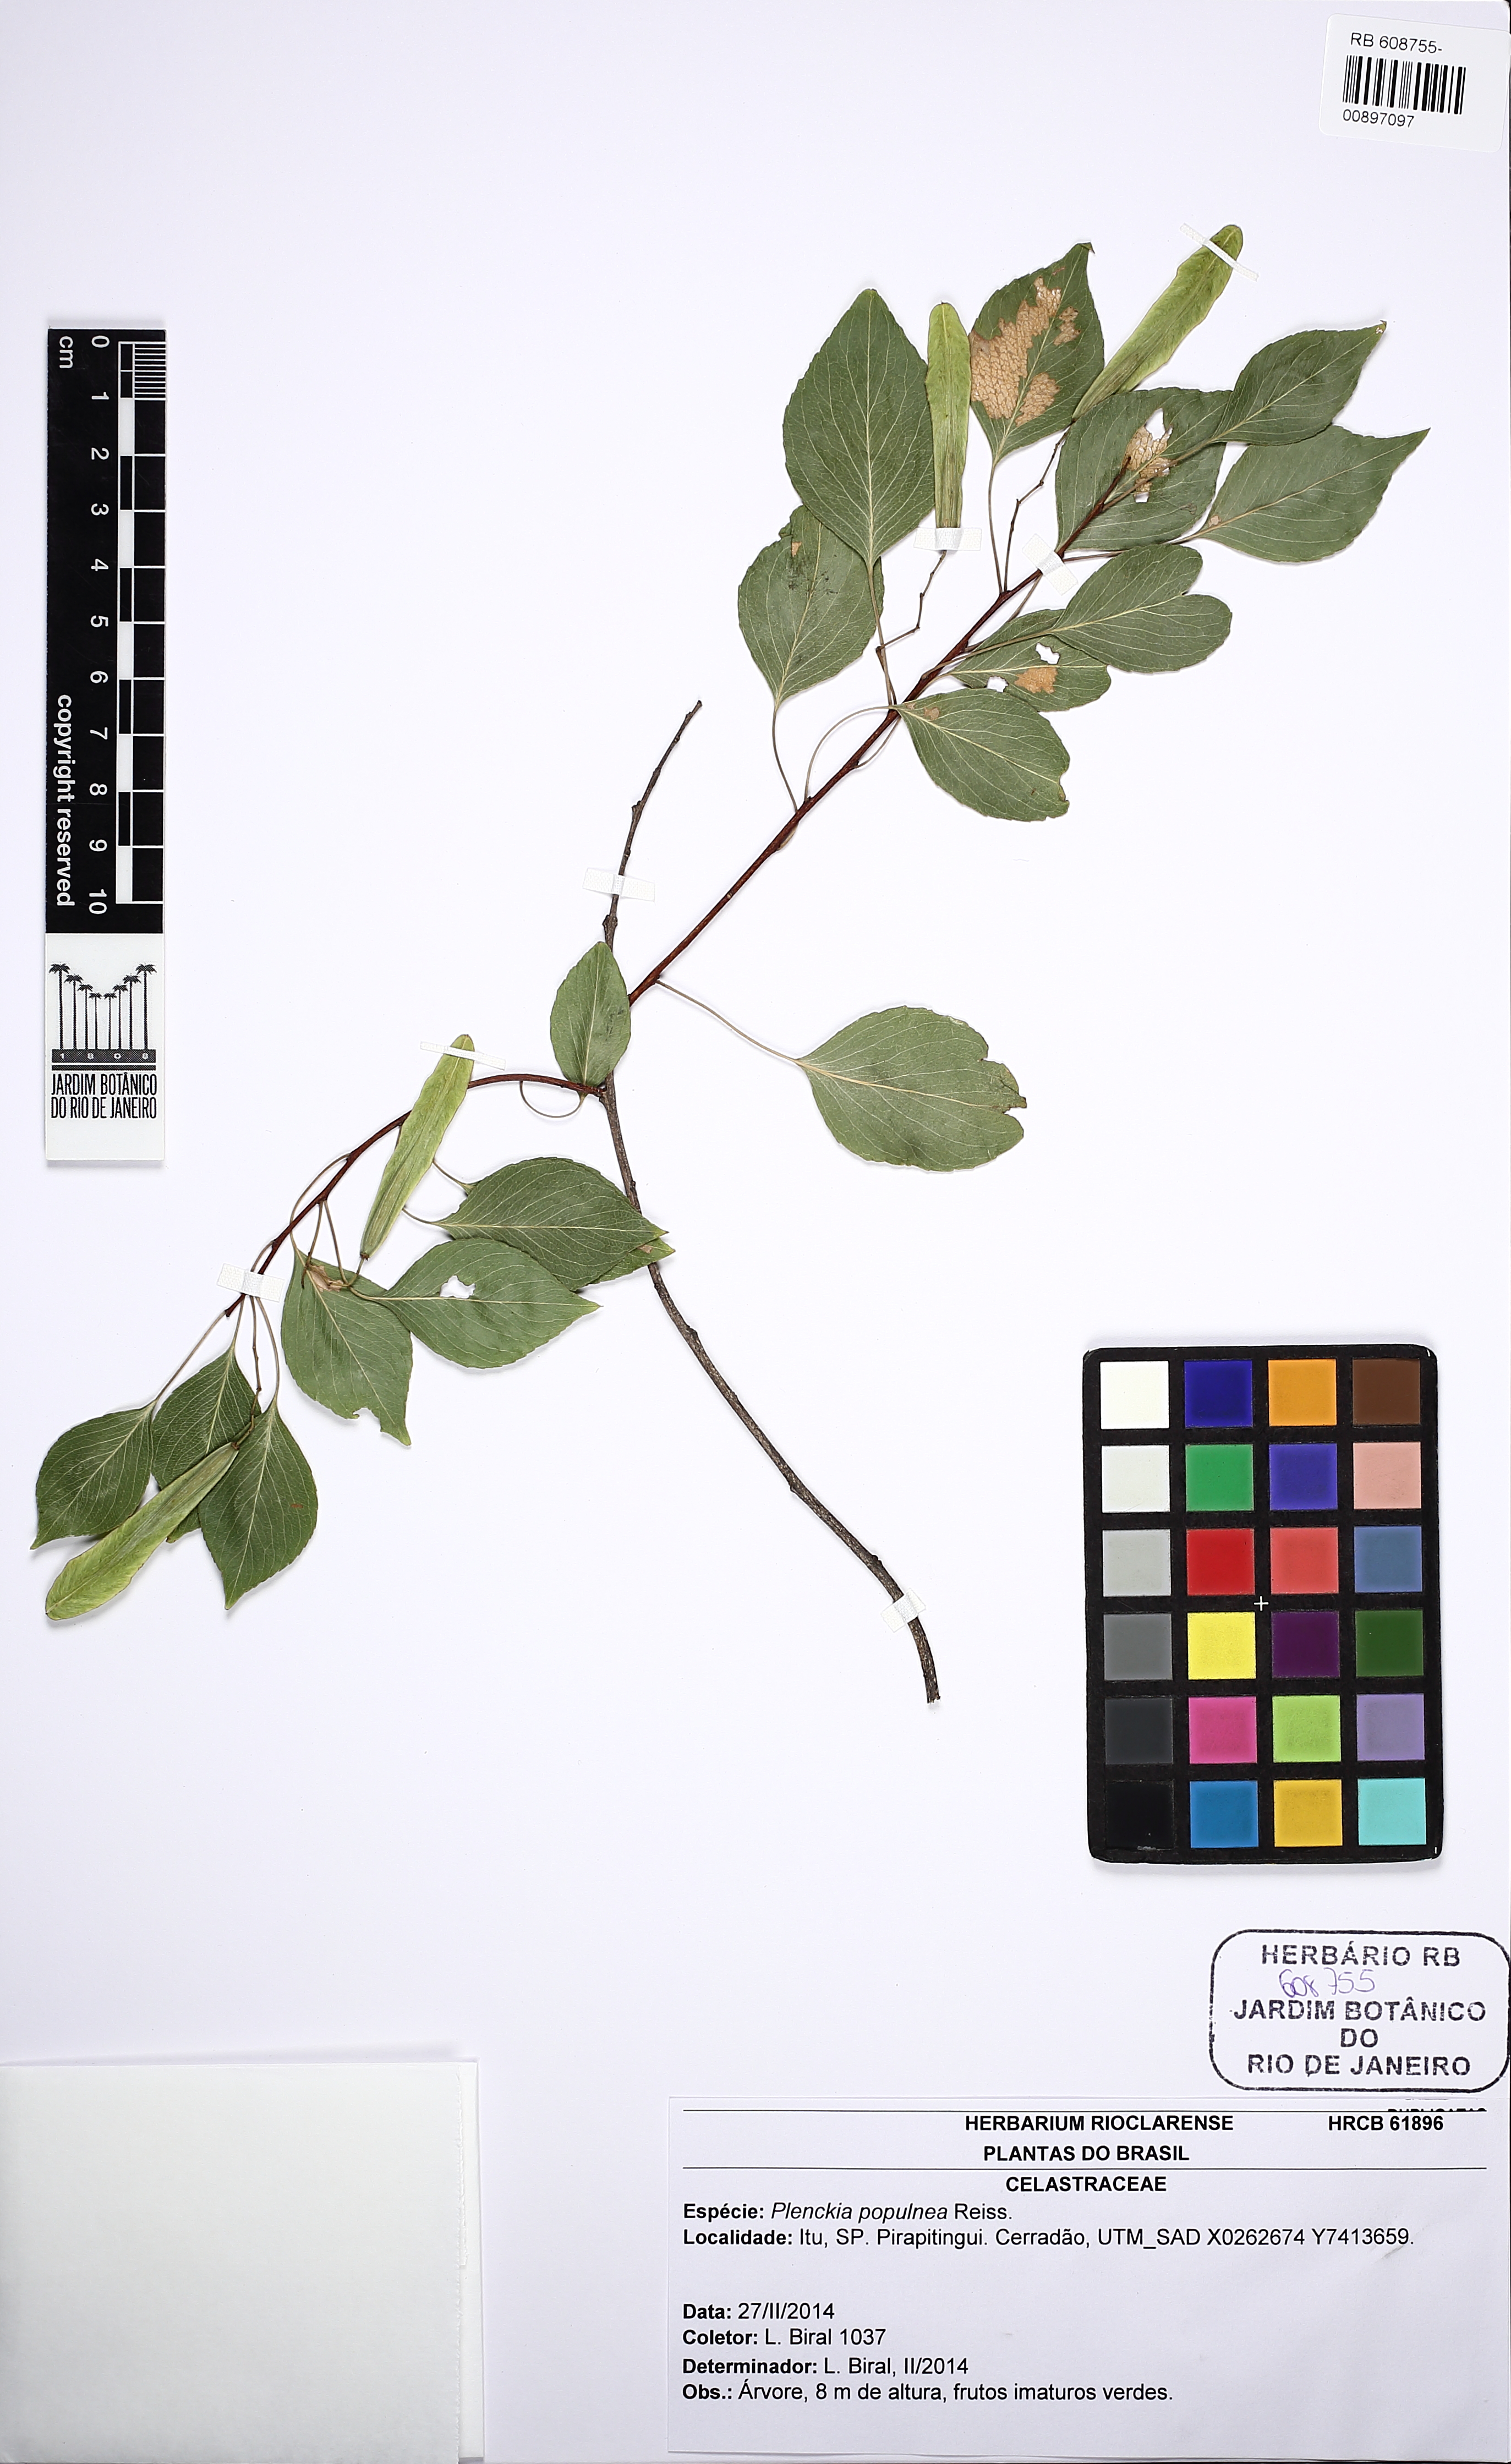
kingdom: Plantae
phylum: Tracheophyta
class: Magnoliopsida
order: Celastrales
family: Celastraceae
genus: Plenckia
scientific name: Plenckia populnea
